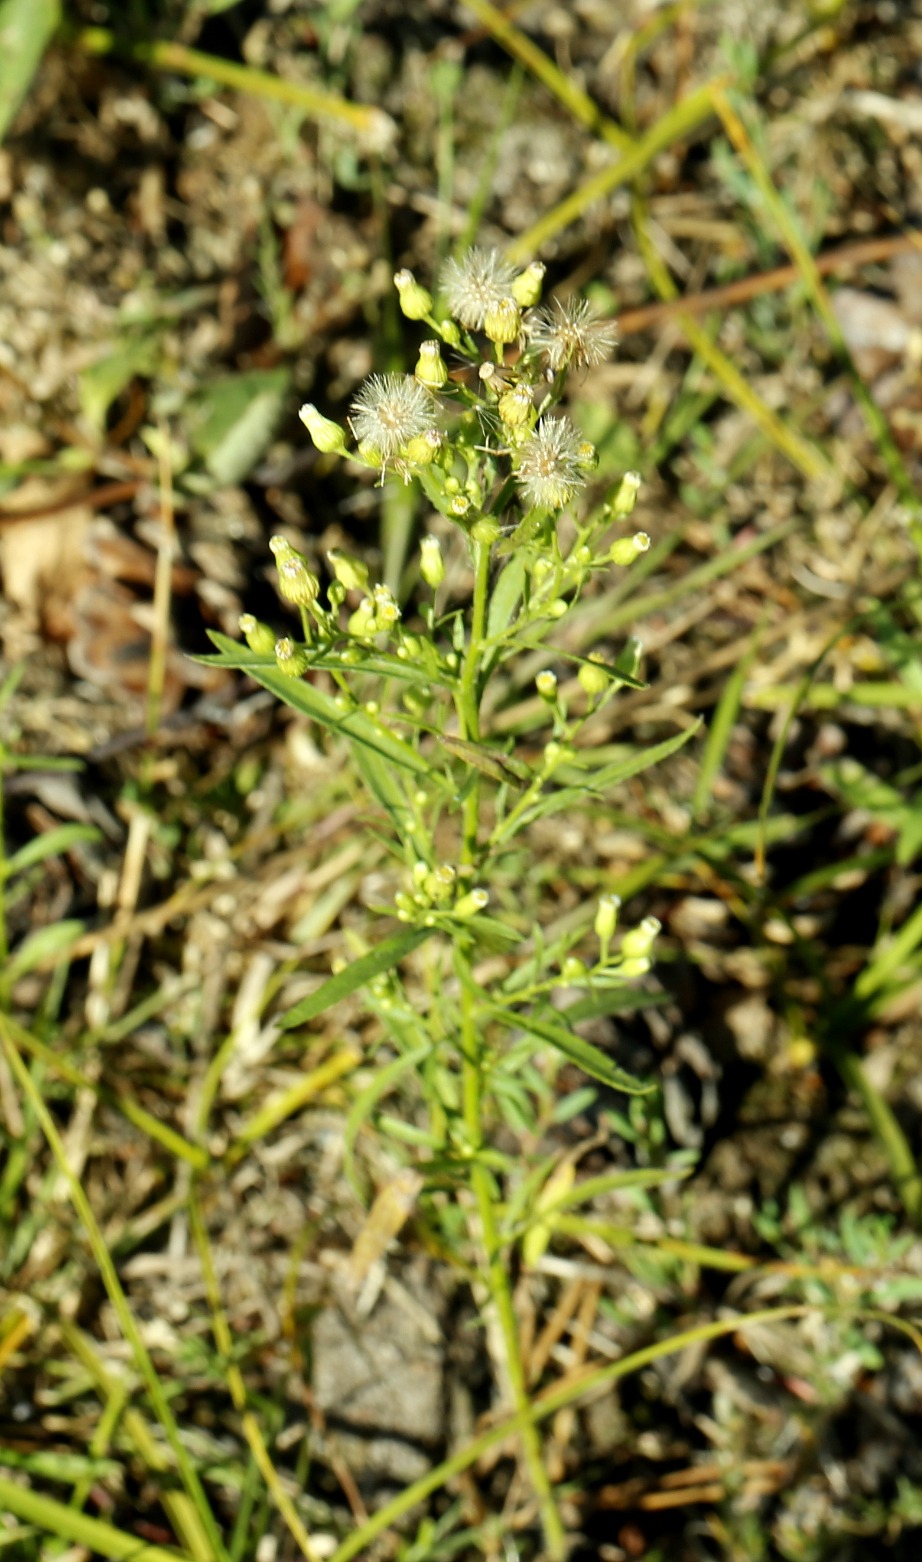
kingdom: Plantae
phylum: Tracheophyta
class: Magnoliopsida
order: Asterales
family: Asteraceae
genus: Erigeron
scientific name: Erigeron canadensis
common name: Kanadisk bakkestjerne
